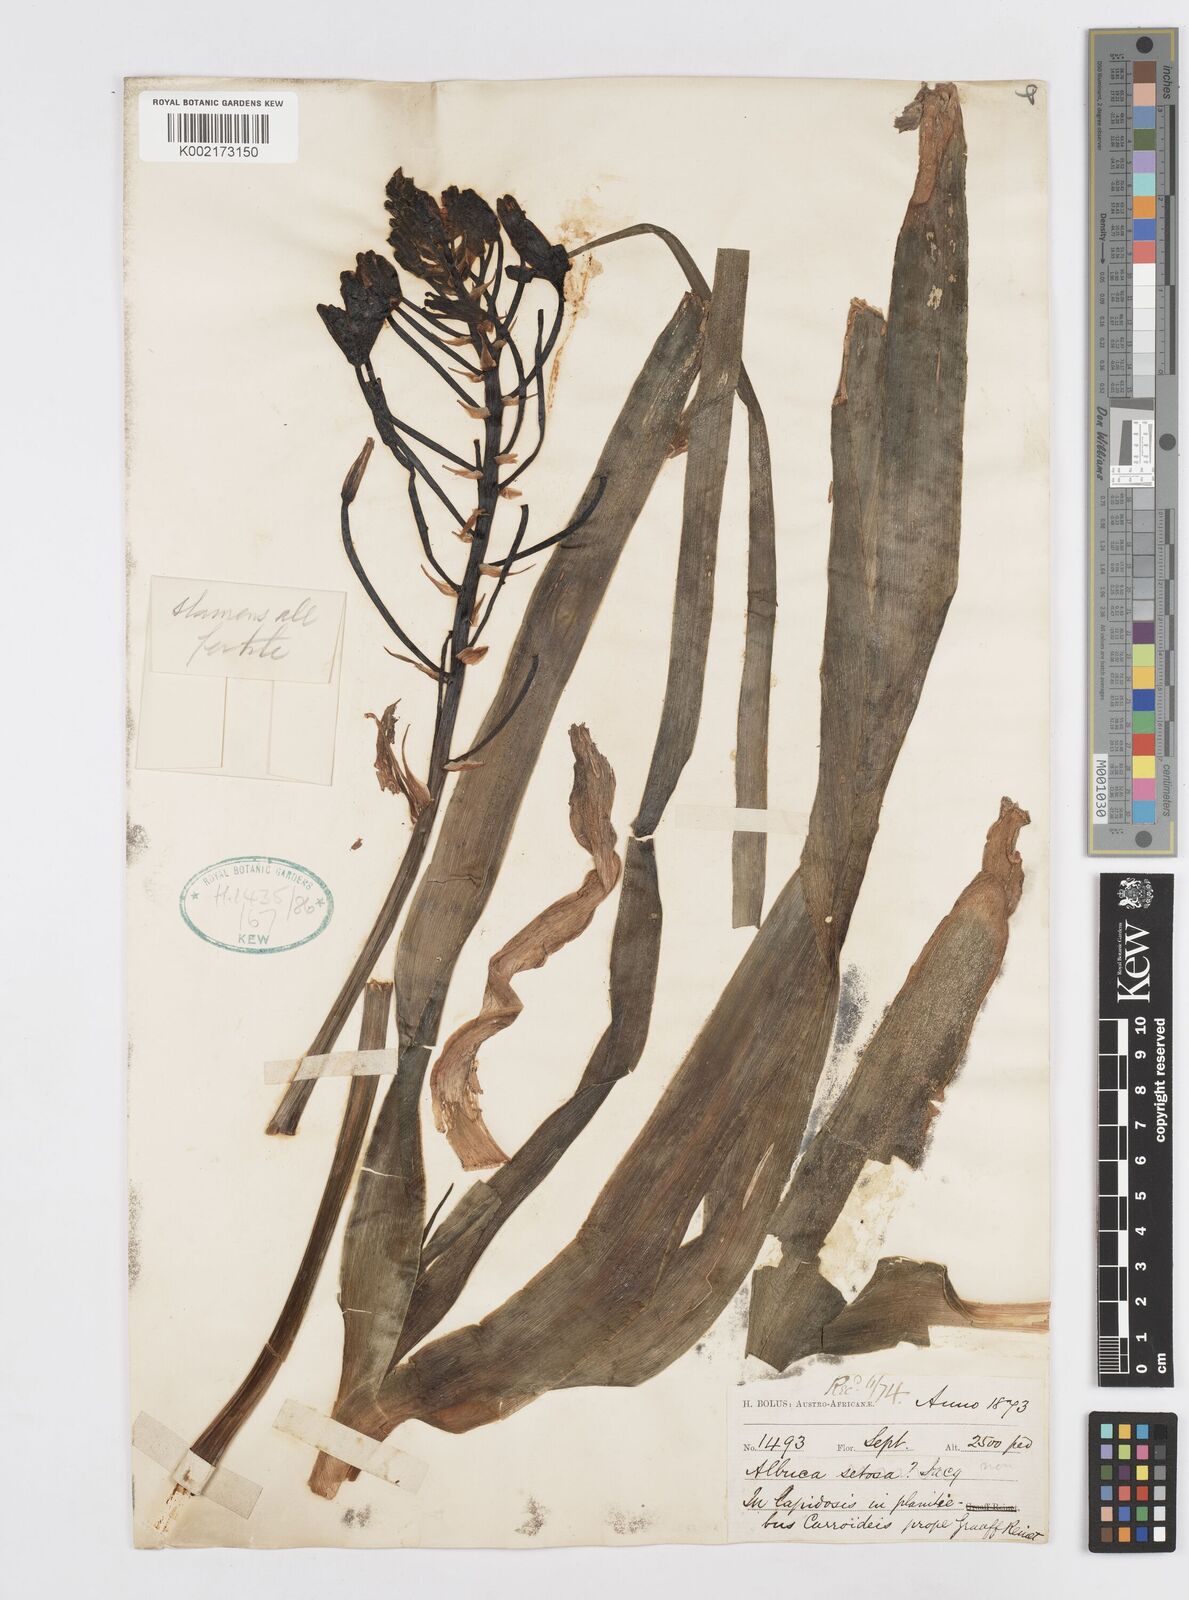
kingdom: Plantae
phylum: Tracheophyta
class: Liliopsida
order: Asparagales
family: Asparagaceae
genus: Albuca
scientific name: Albuca
